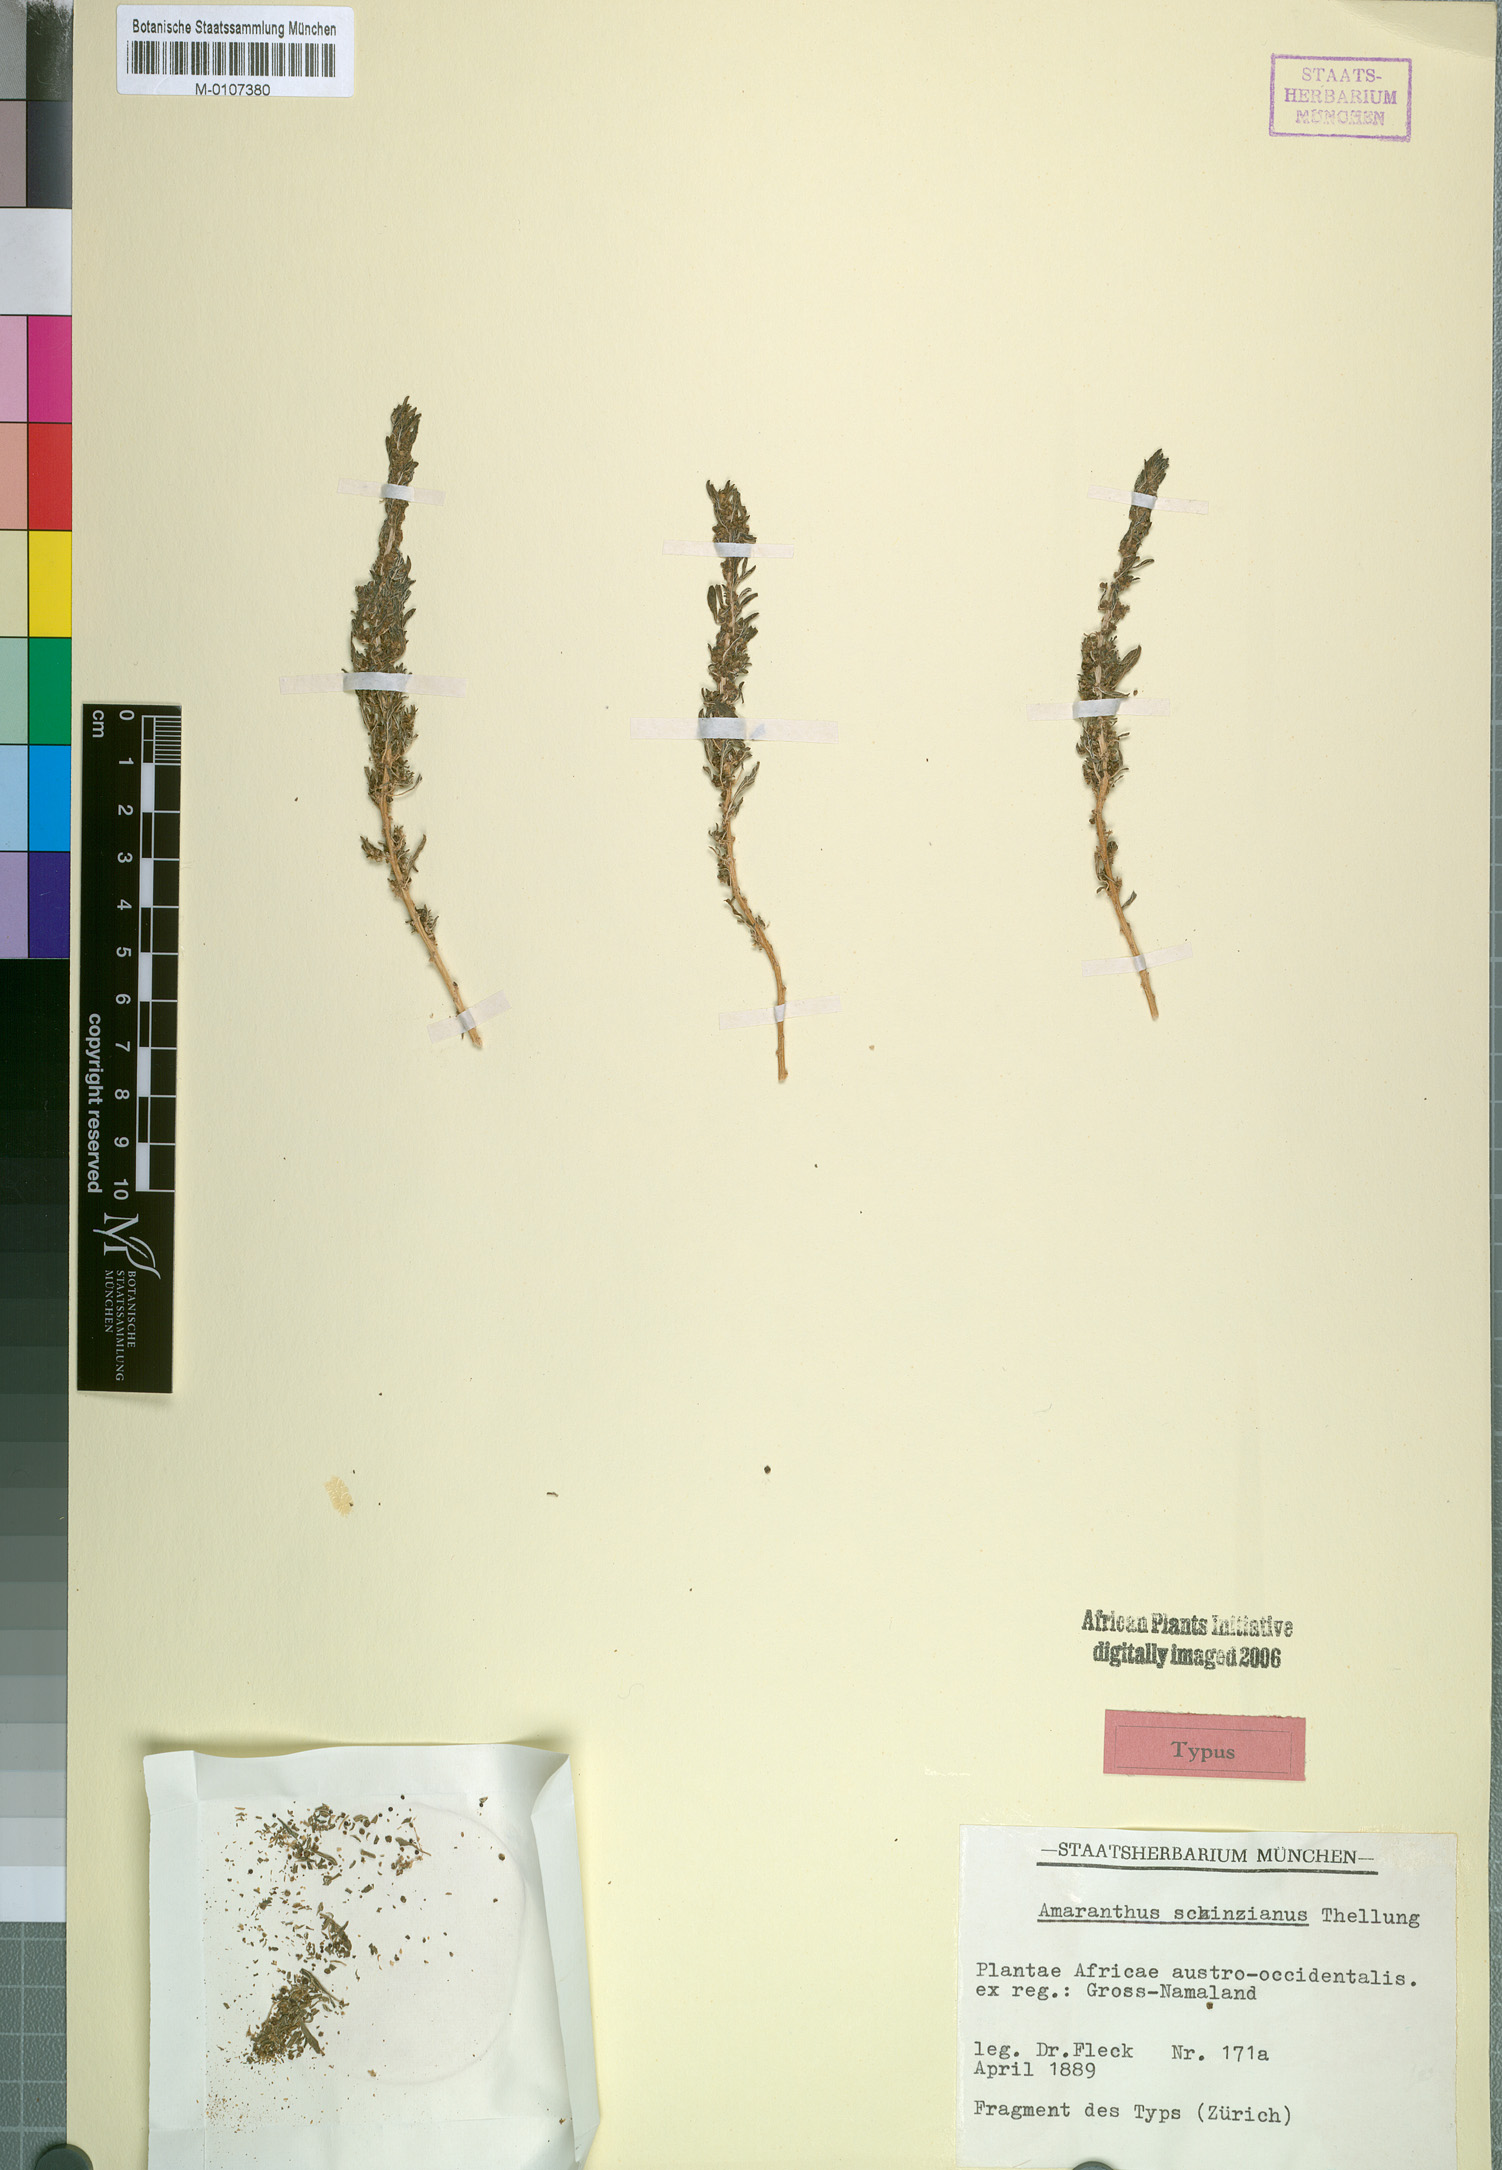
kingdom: Plantae
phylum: Tracheophyta
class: Magnoliopsida
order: Caryophyllales
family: Amaranthaceae
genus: Amaranthus
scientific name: Amaranthus schinzianus
